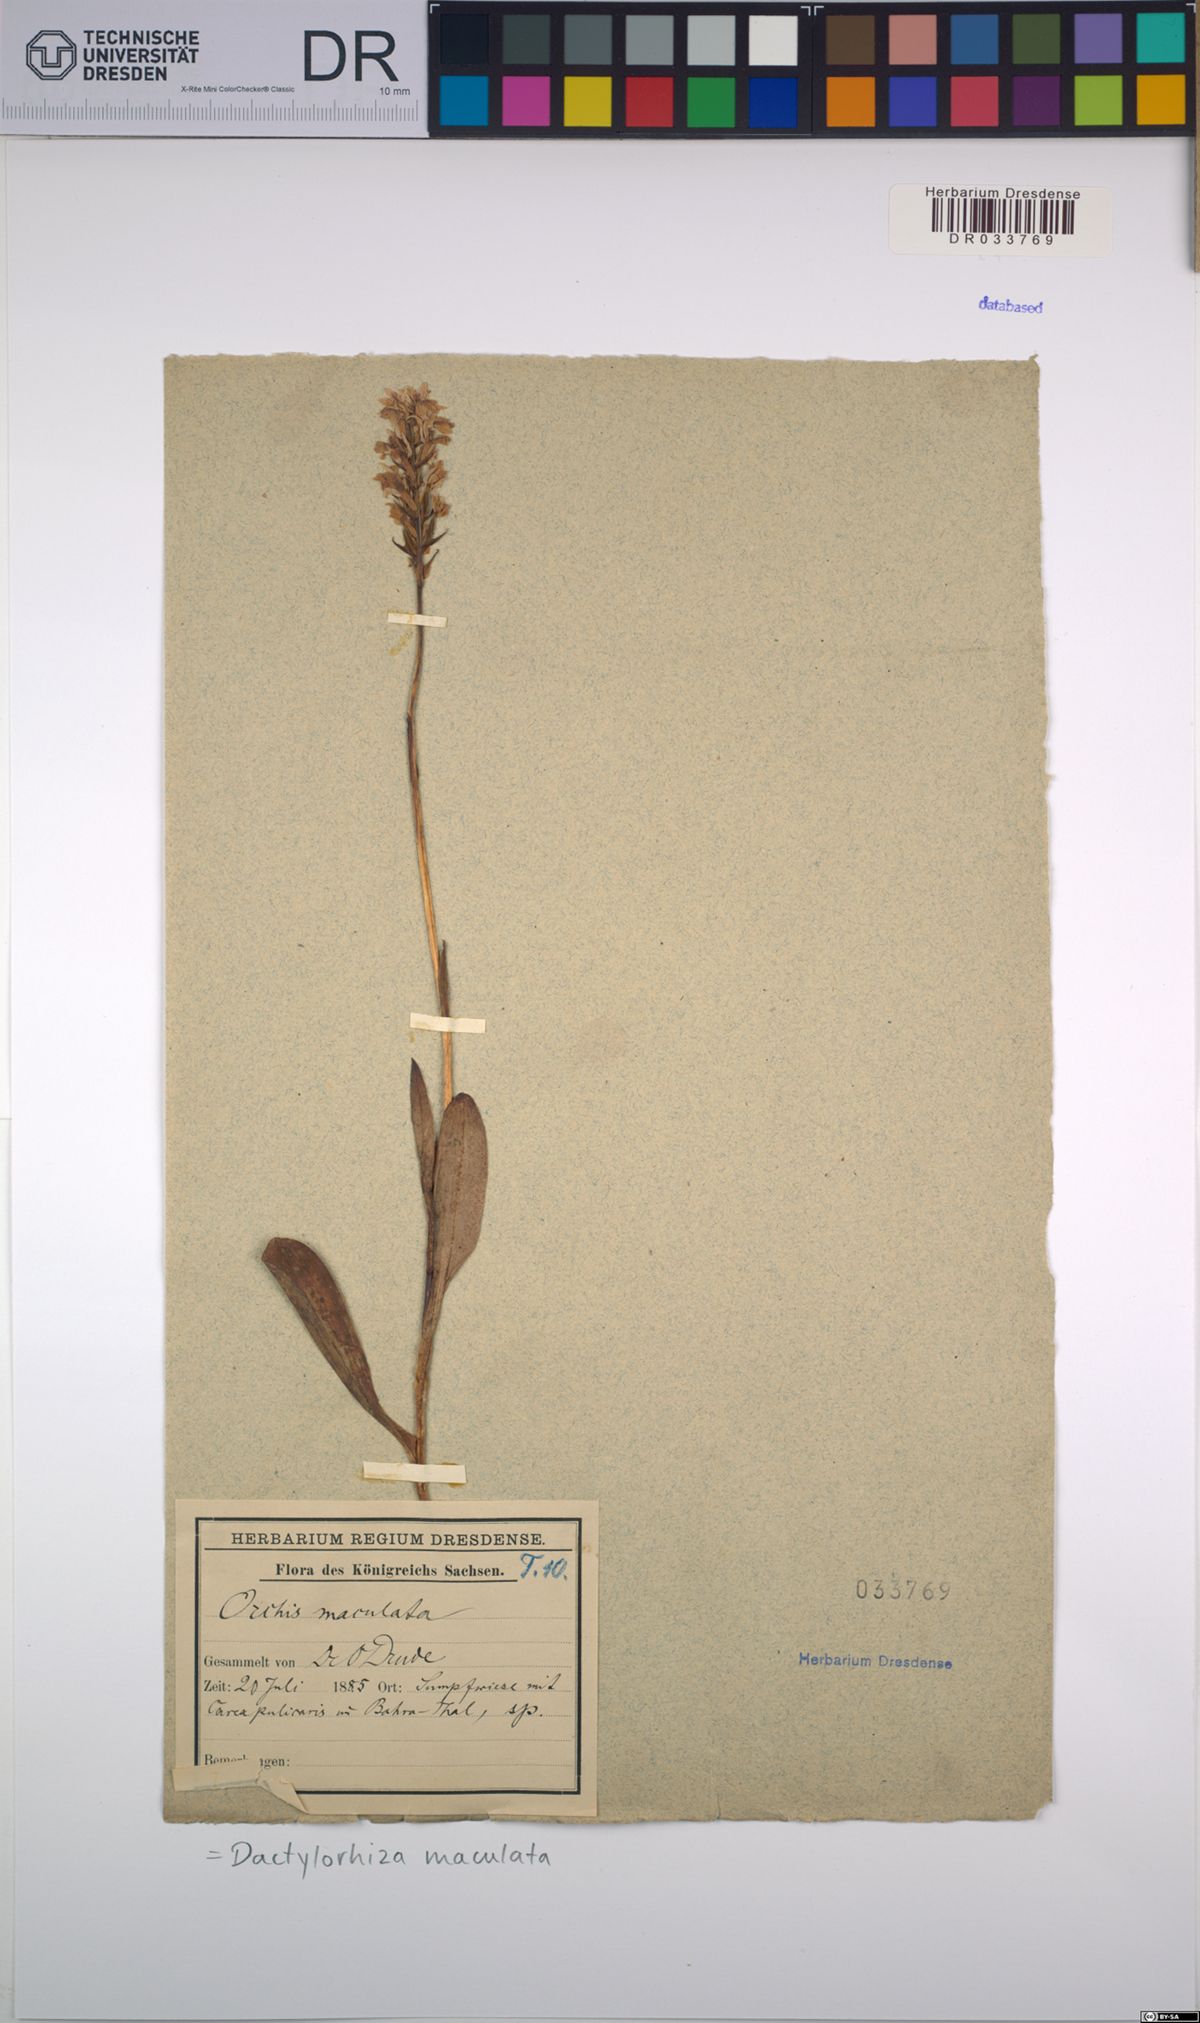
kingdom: Plantae
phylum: Tracheophyta
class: Liliopsida
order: Asparagales
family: Orchidaceae
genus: Dactylorhiza
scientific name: Dactylorhiza maculata
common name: Heath spotted-orchid
